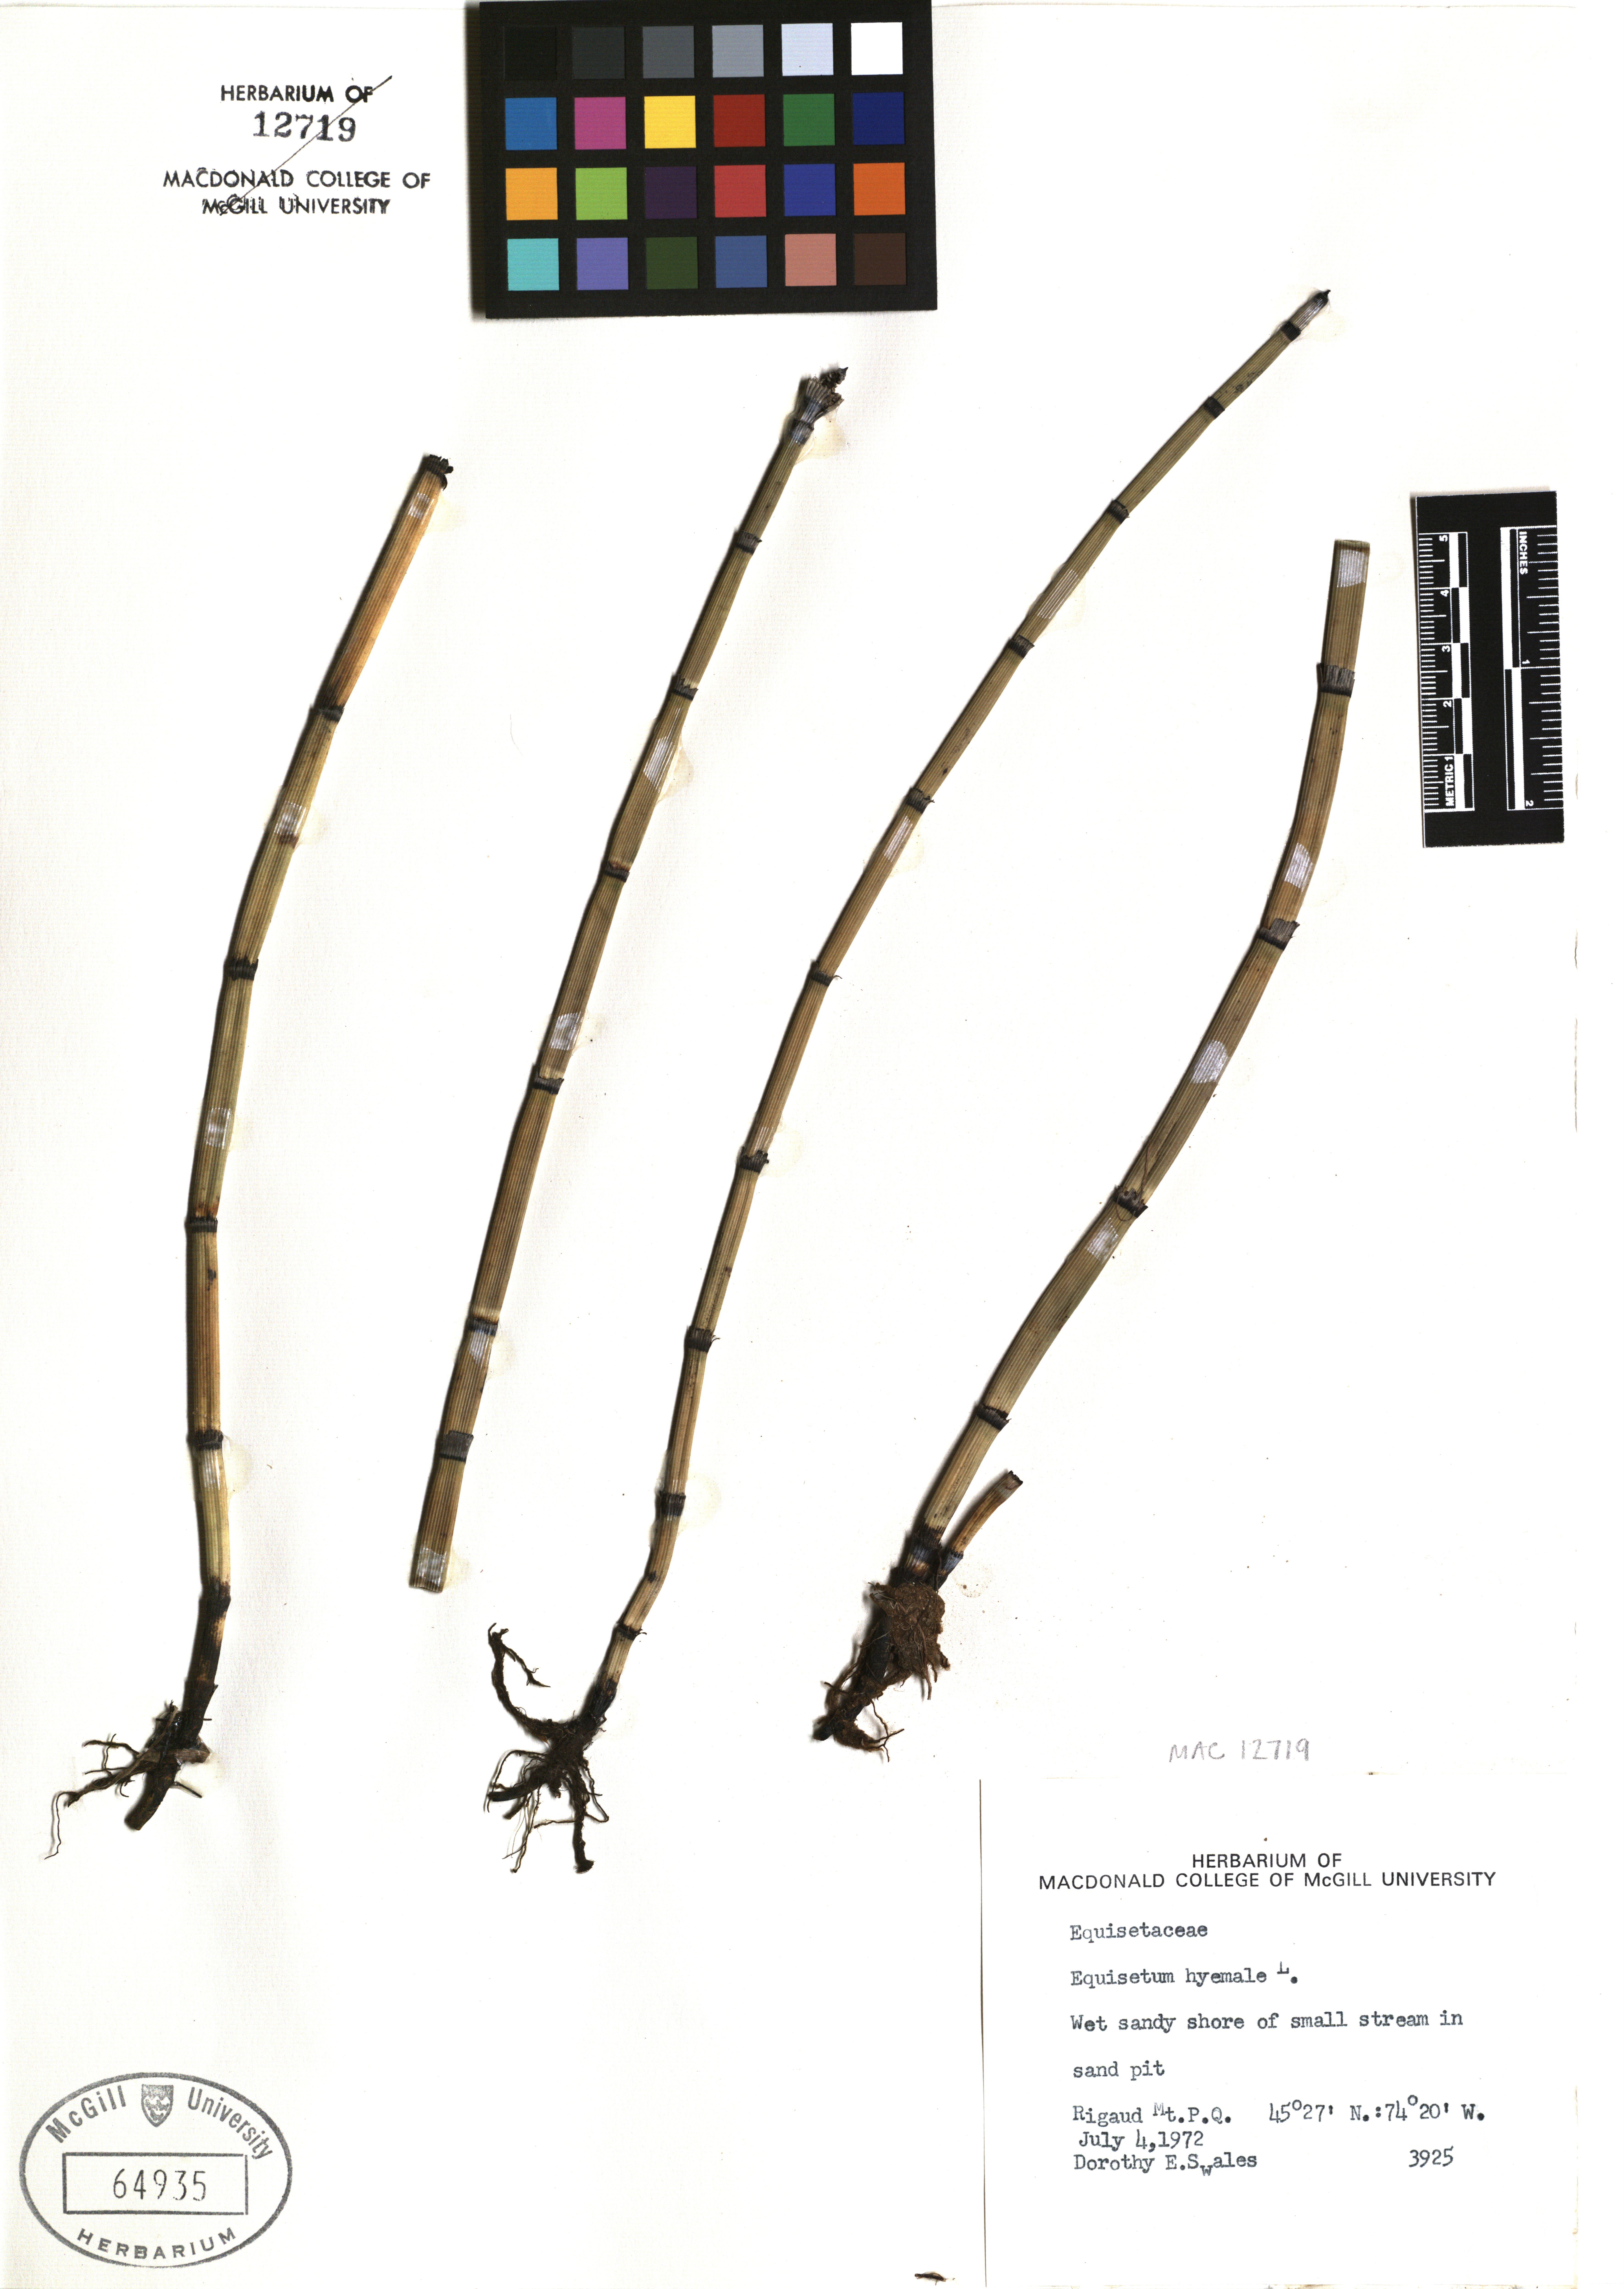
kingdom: Plantae
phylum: Tracheophyta
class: Polypodiopsida
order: Equisetales
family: Equisetaceae
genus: Equisetum
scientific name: Equisetum hyemale
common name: Rough horsetail
